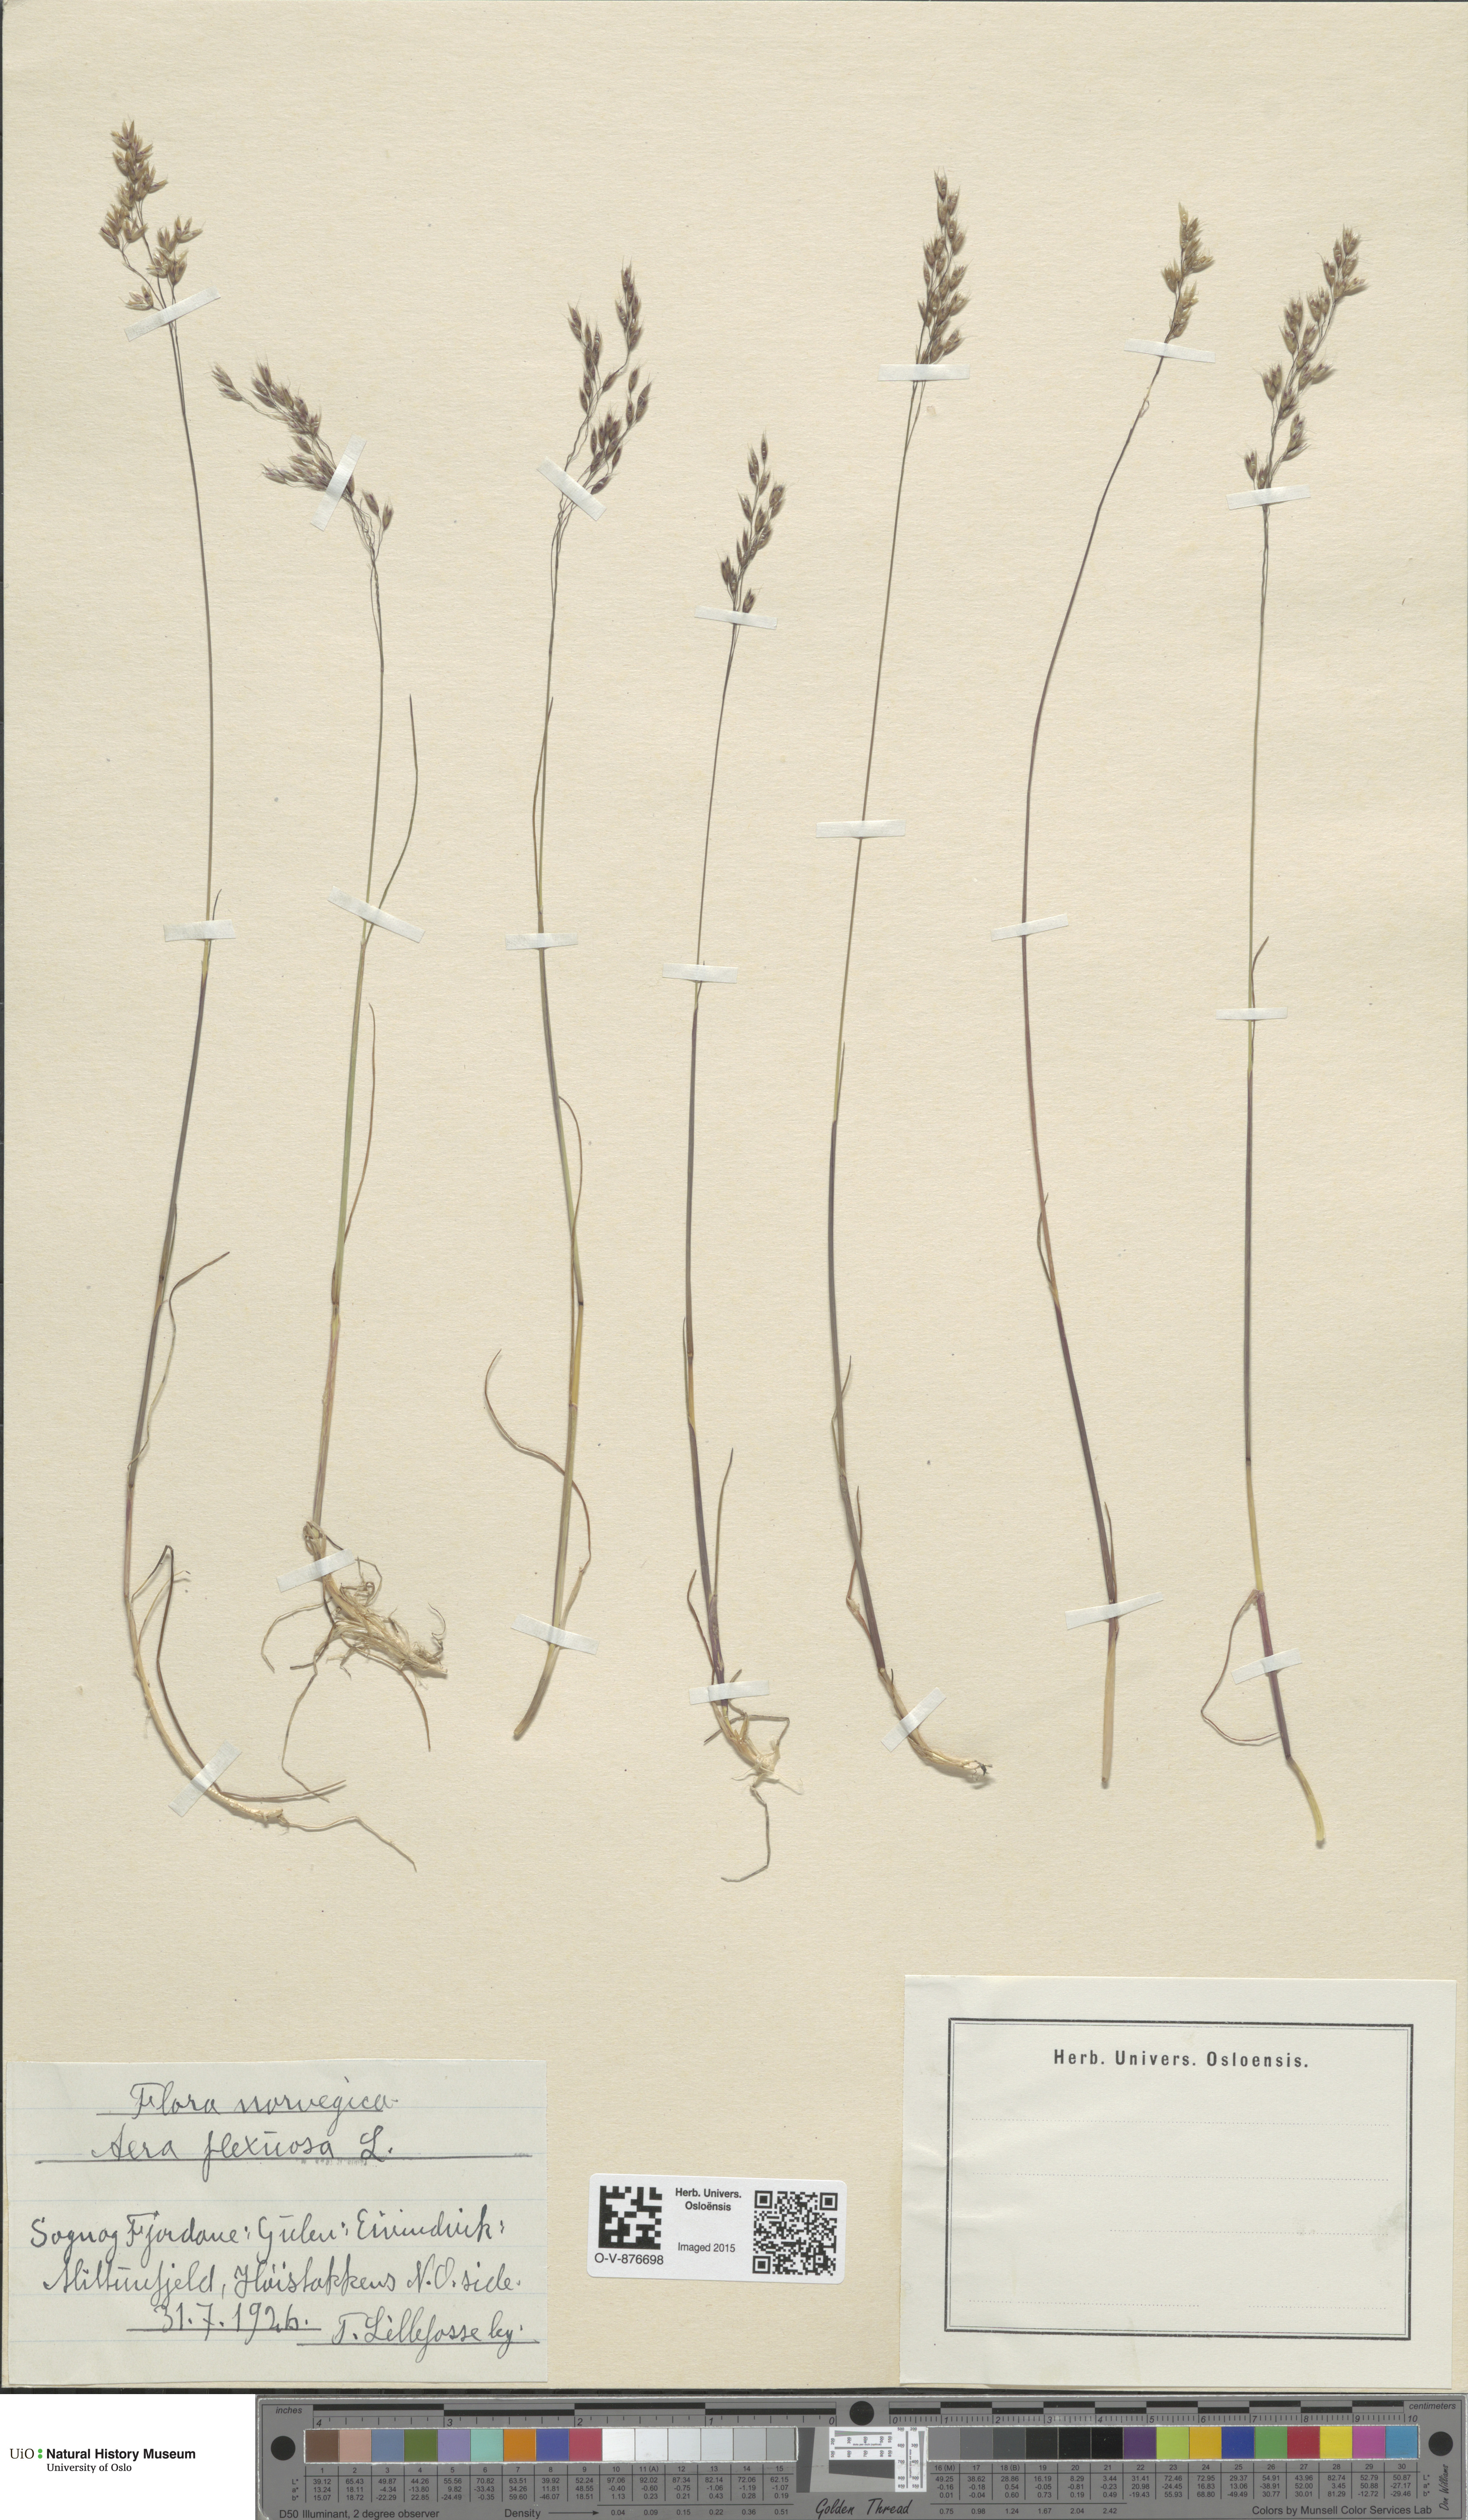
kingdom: Plantae
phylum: Tracheophyta
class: Liliopsida
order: Poales
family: Poaceae
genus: Avenella
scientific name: Avenella flexuosa
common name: Wavy hairgrass
